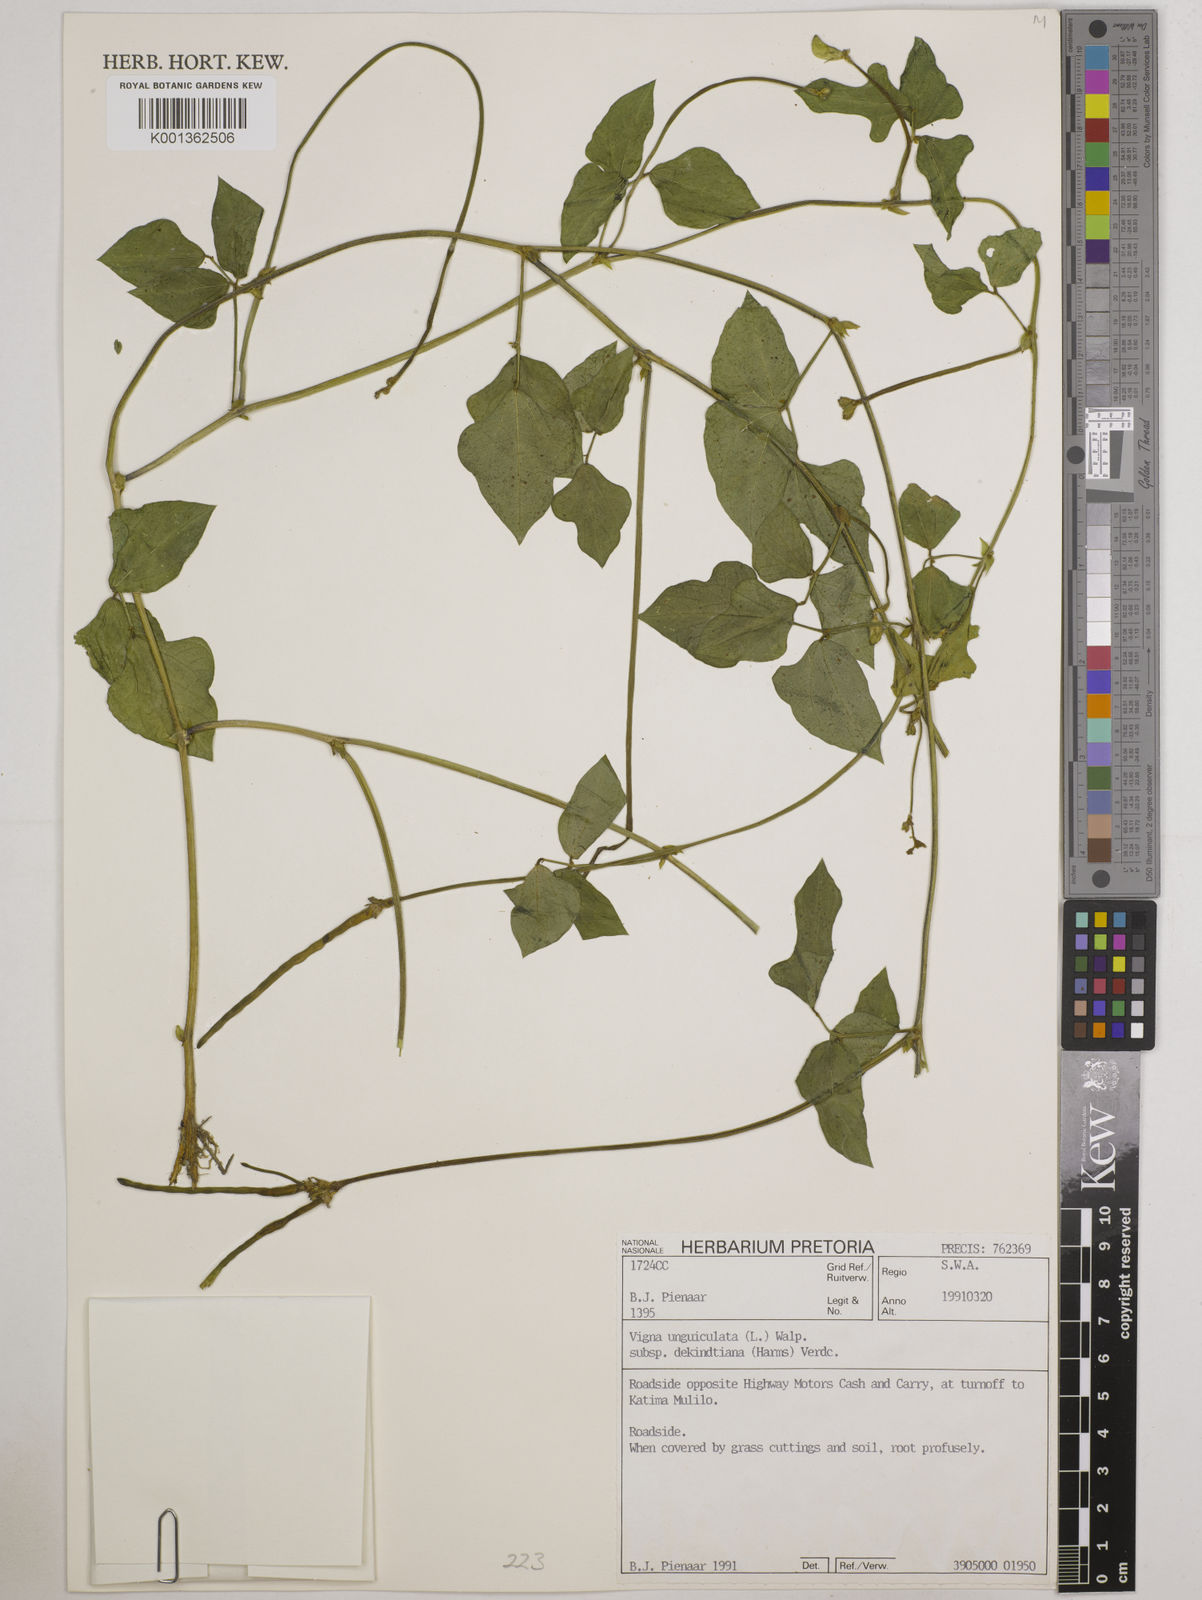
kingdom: Plantae
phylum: Tracheophyta
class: Magnoliopsida
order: Fabales
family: Fabaceae
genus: Vigna
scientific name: Vigna
